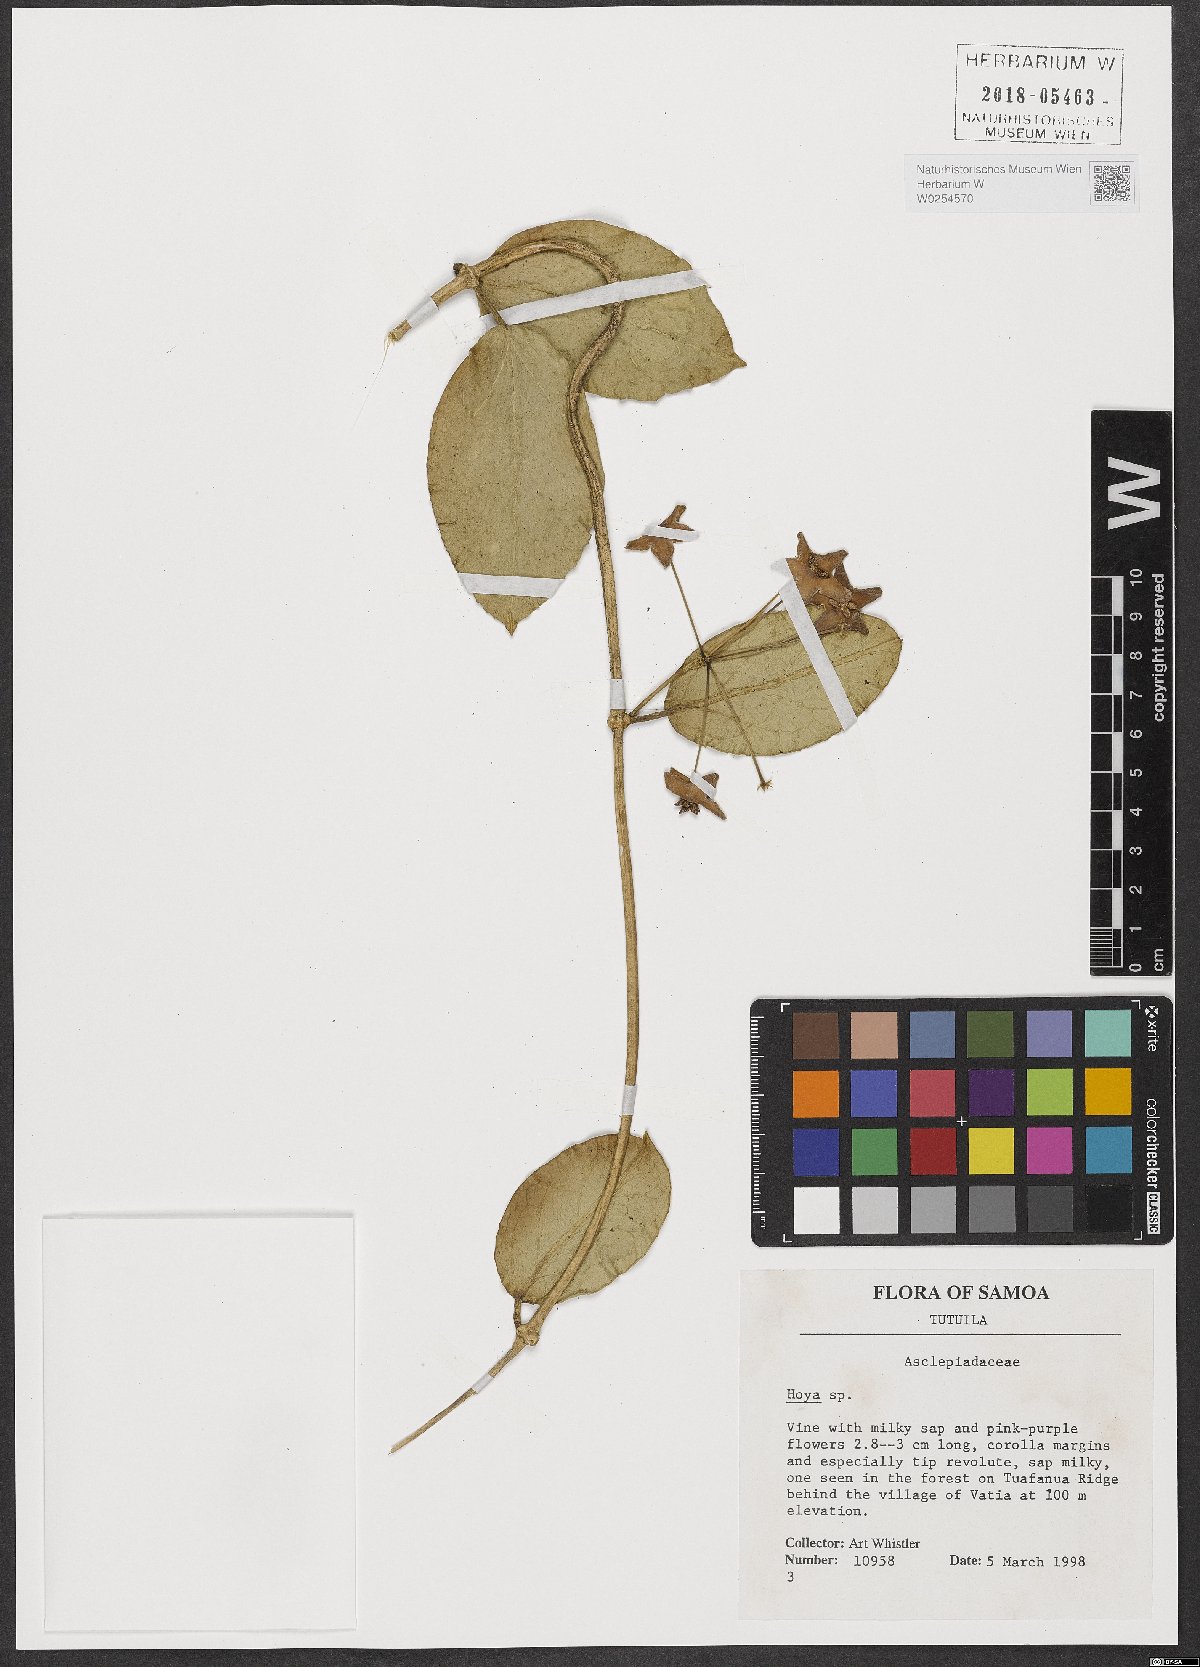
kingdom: Plantae
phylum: Tracheophyta
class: Magnoliopsida
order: Gentianales
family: Apocynaceae
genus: Hoya
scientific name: Hoya
